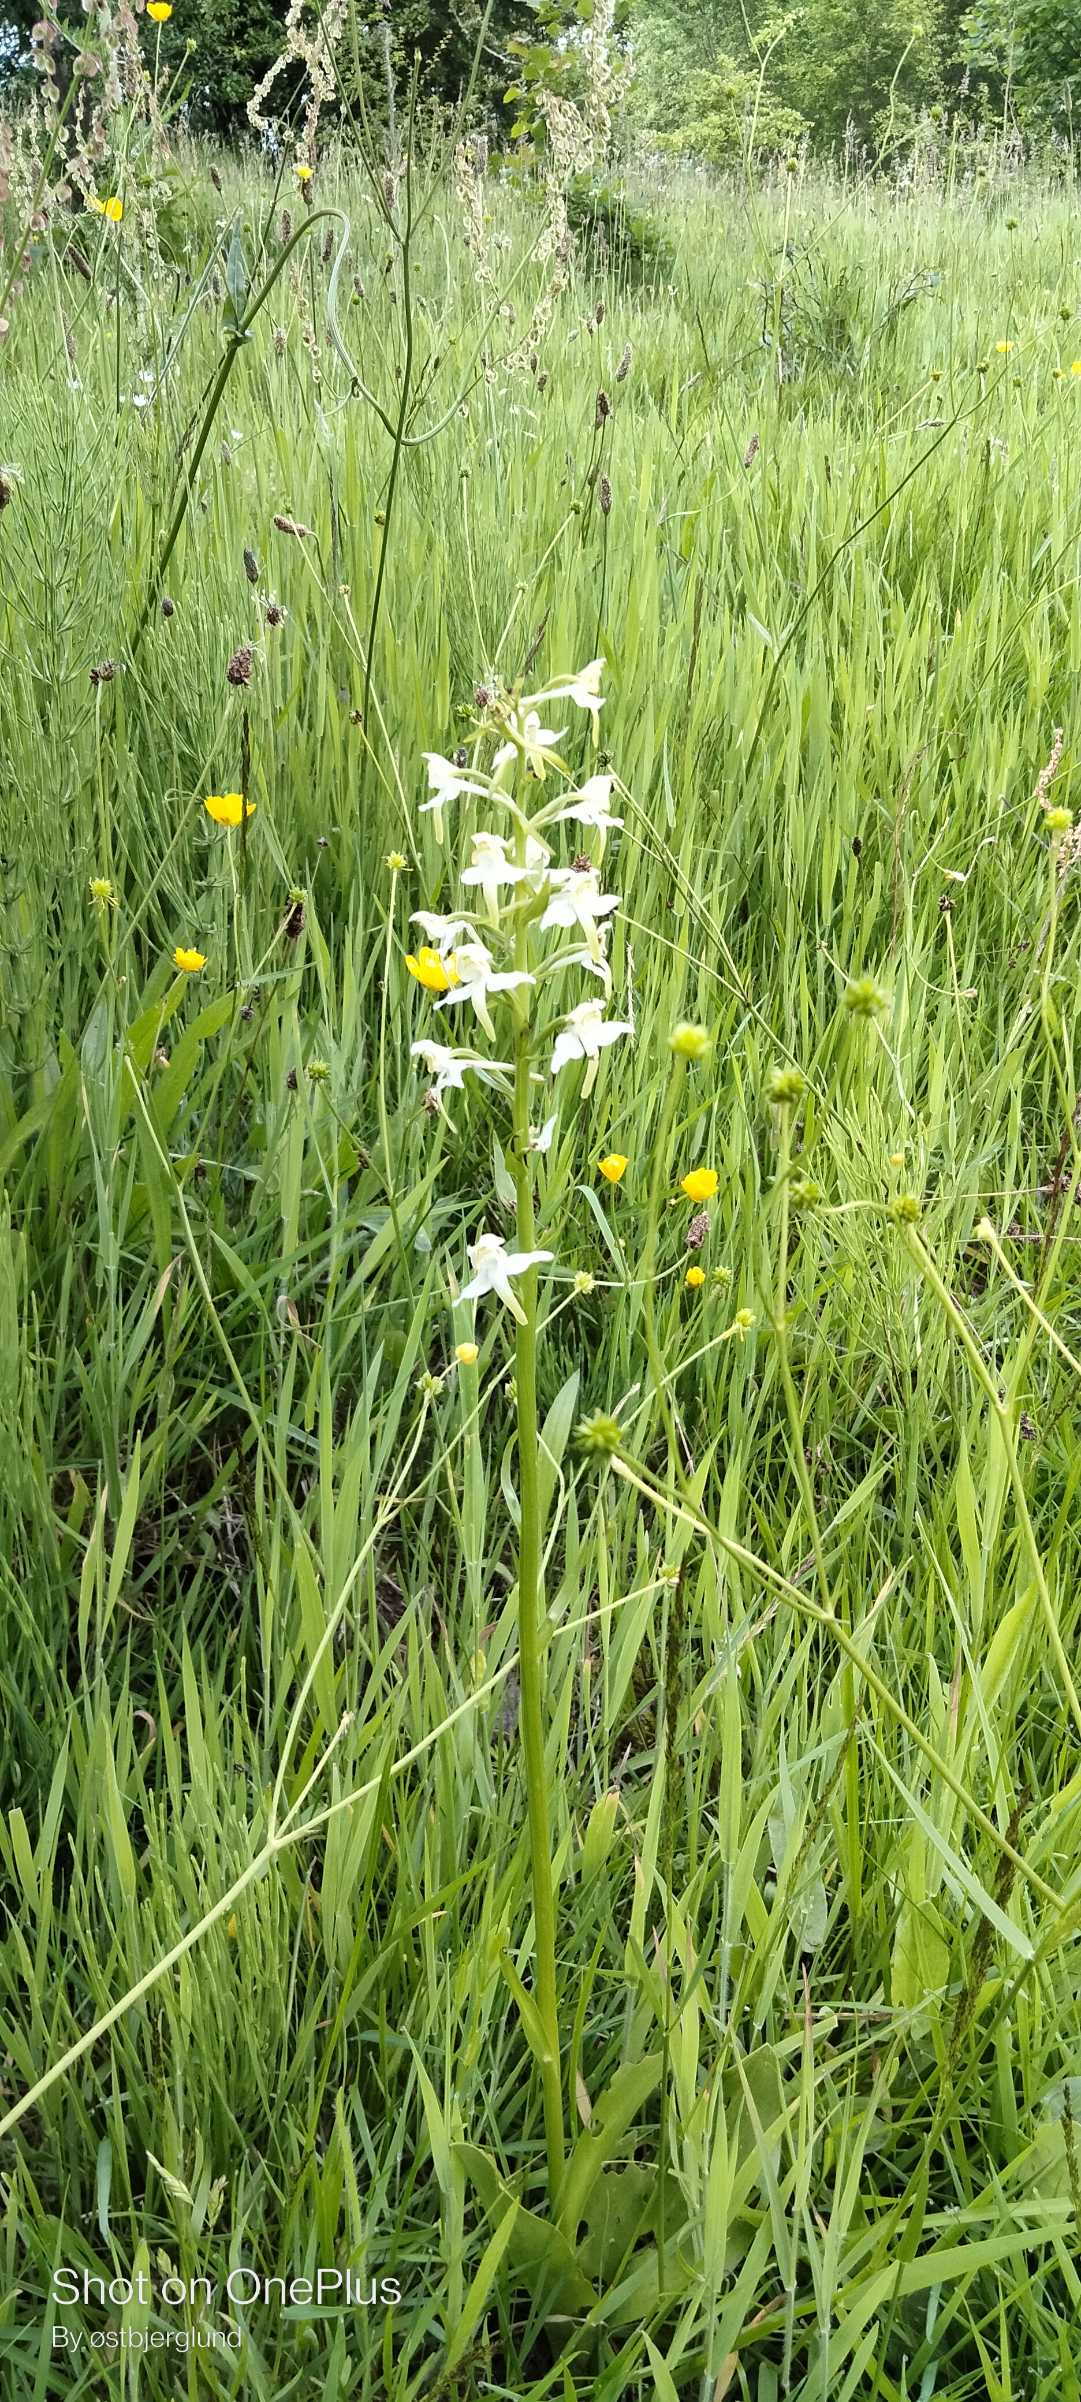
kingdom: Plantae
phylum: Tracheophyta
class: Liliopsida
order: Asparagales
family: Orchidaceae
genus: Platanthera
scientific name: Platanthera chlorantha
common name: Skov-gøgelilje
